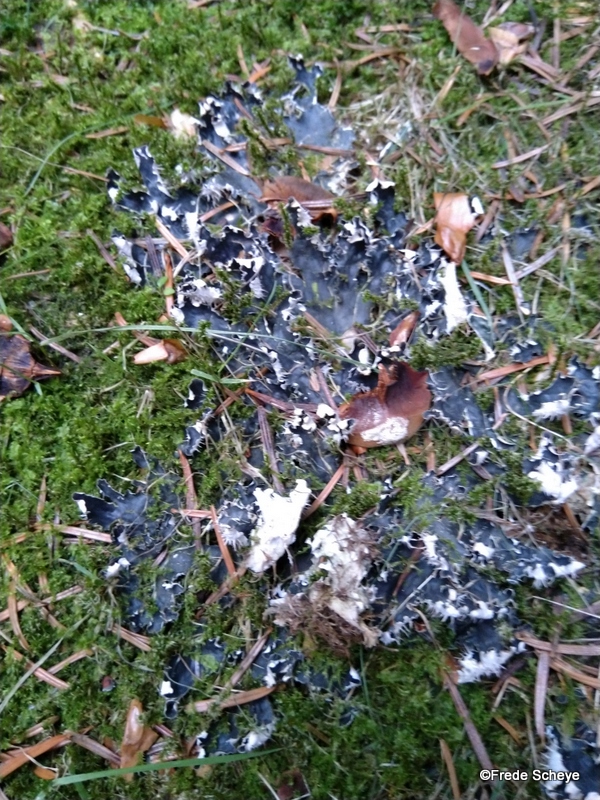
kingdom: Fungi
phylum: Ascomycota
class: Lecanoromycetes
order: Peltigerales
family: Peltigeraceae
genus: Peltigera
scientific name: Peltigera hymenina
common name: hinde-skjoldlav
